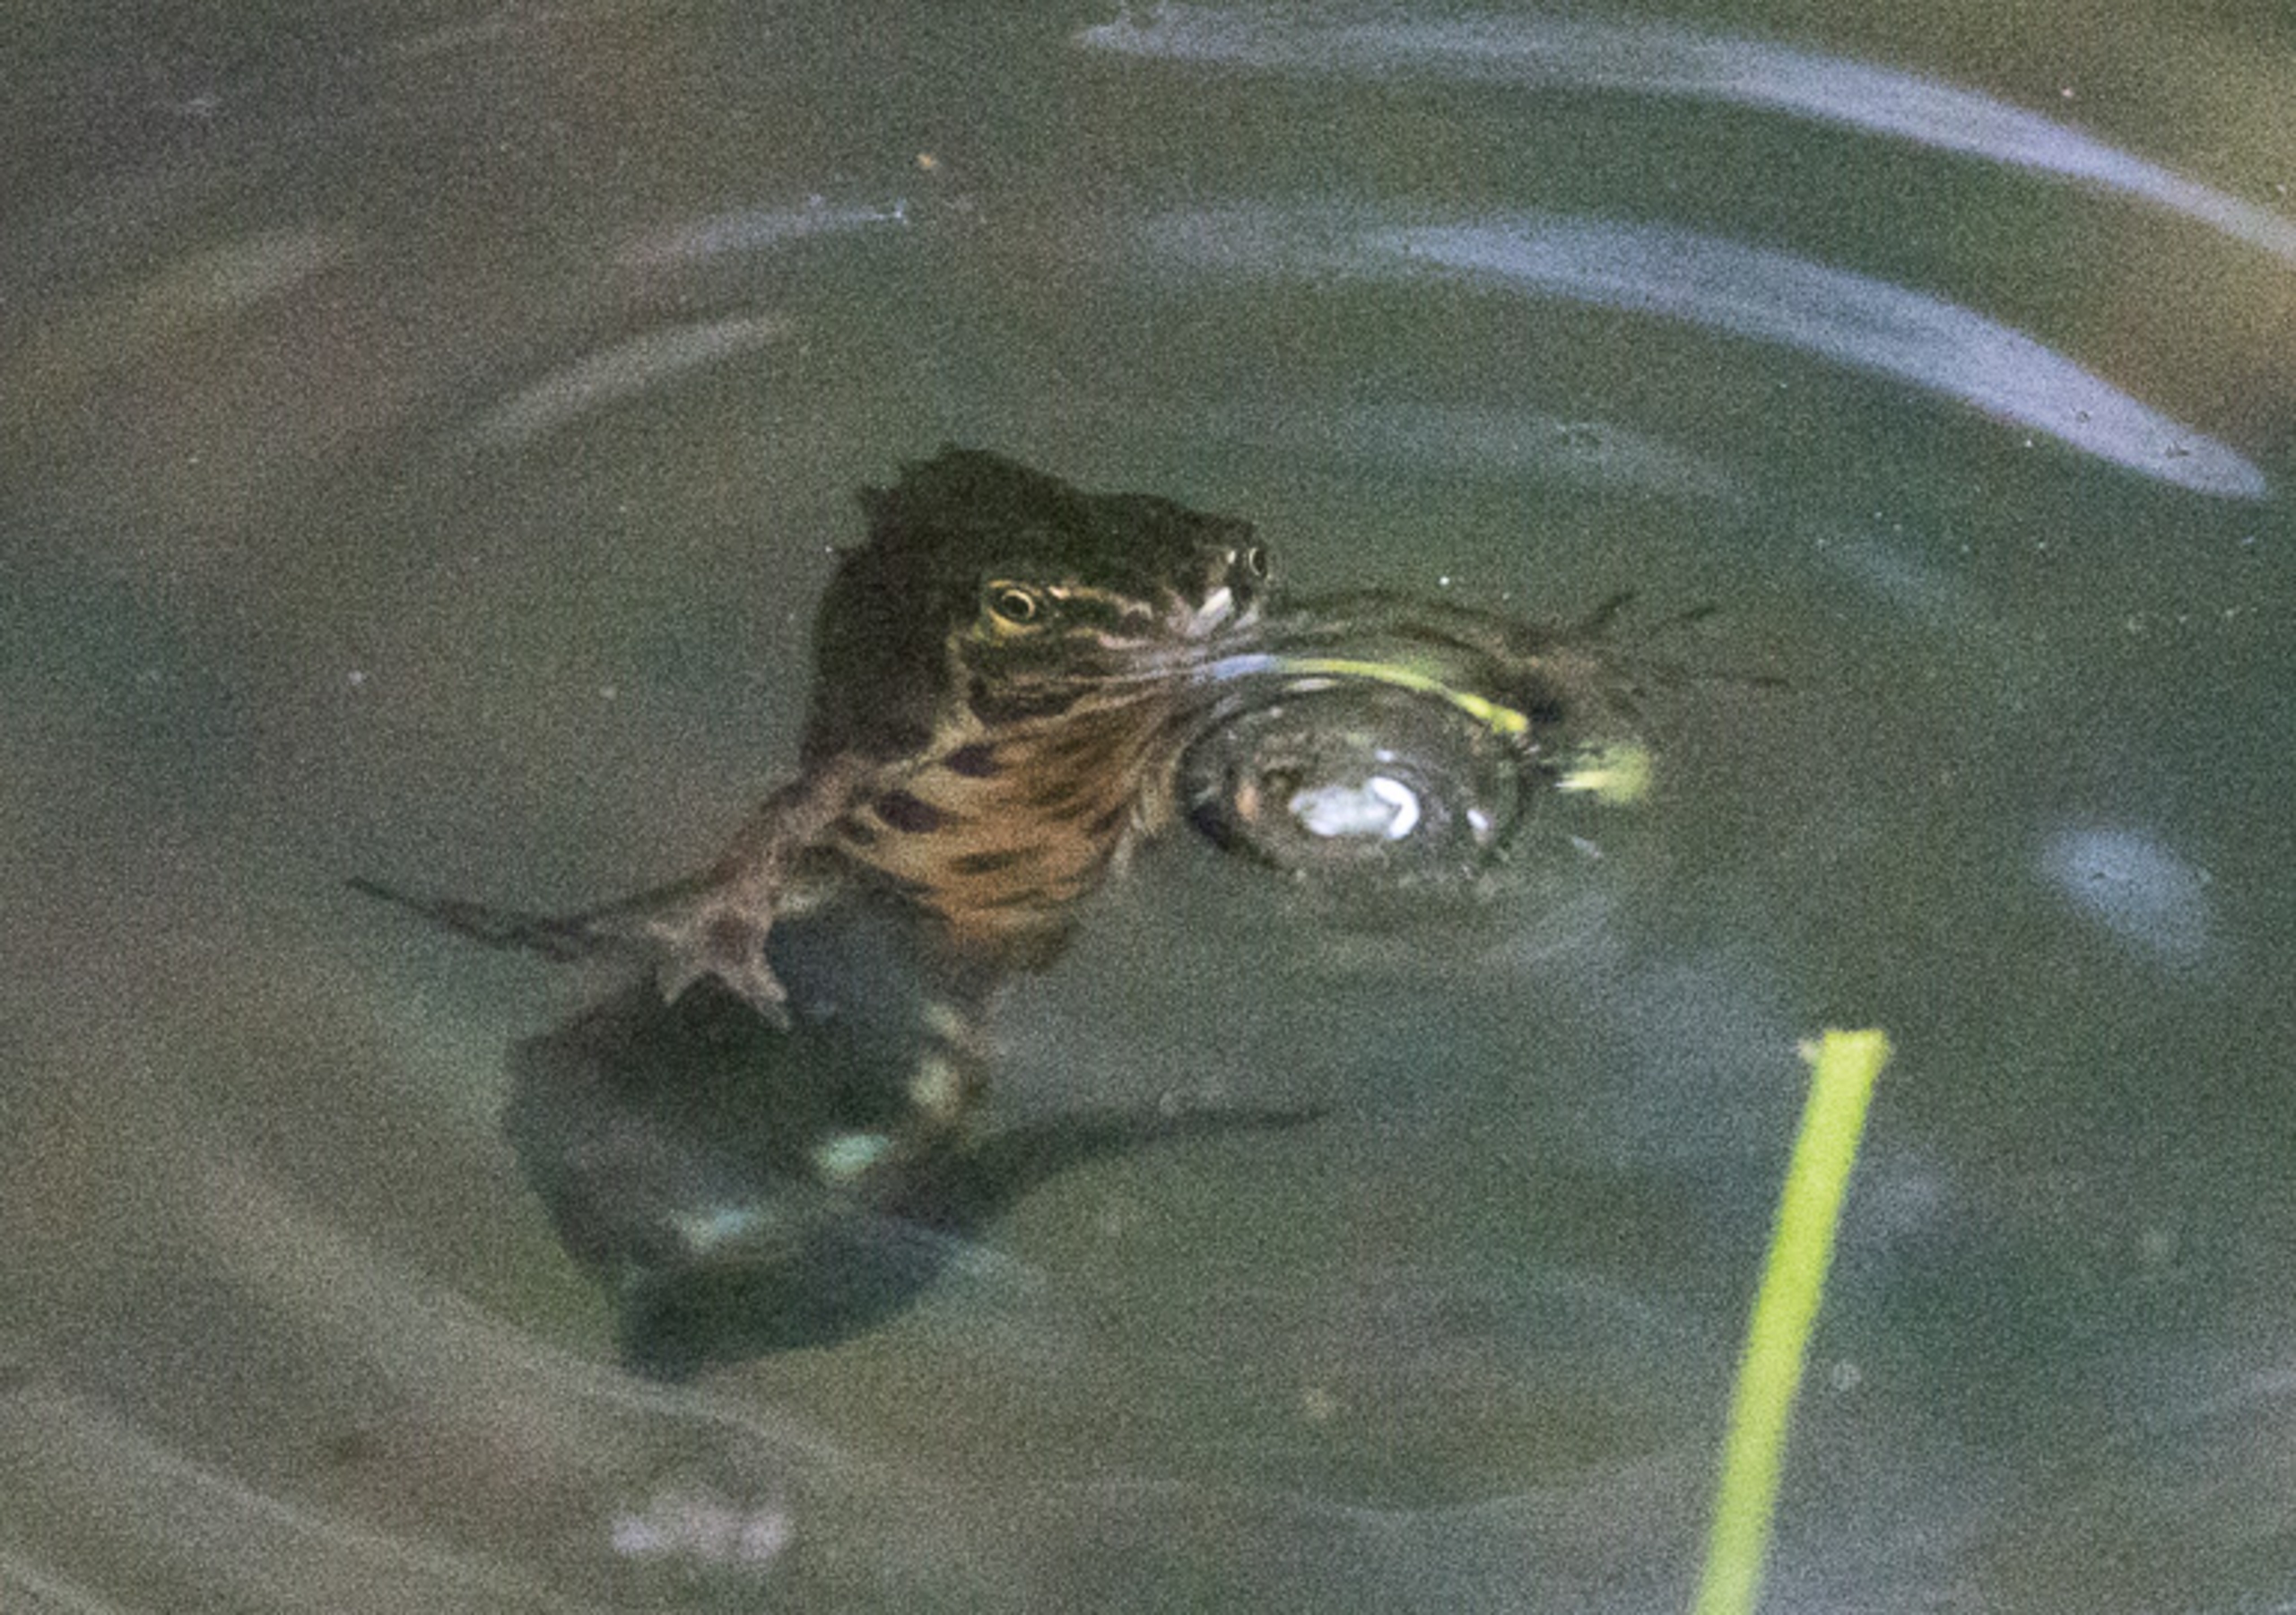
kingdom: Animalia
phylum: Chordata
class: Amphibia
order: Caudata
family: Salamandridae
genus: Lissotriton
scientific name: Lissotriton vulgaris
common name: Lille vandsalamander
